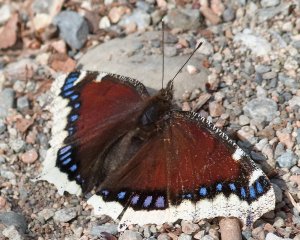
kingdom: Animalia
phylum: Arthropoda
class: Insecta
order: Lepidoptera
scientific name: Lepidoptera
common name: Butterflies
